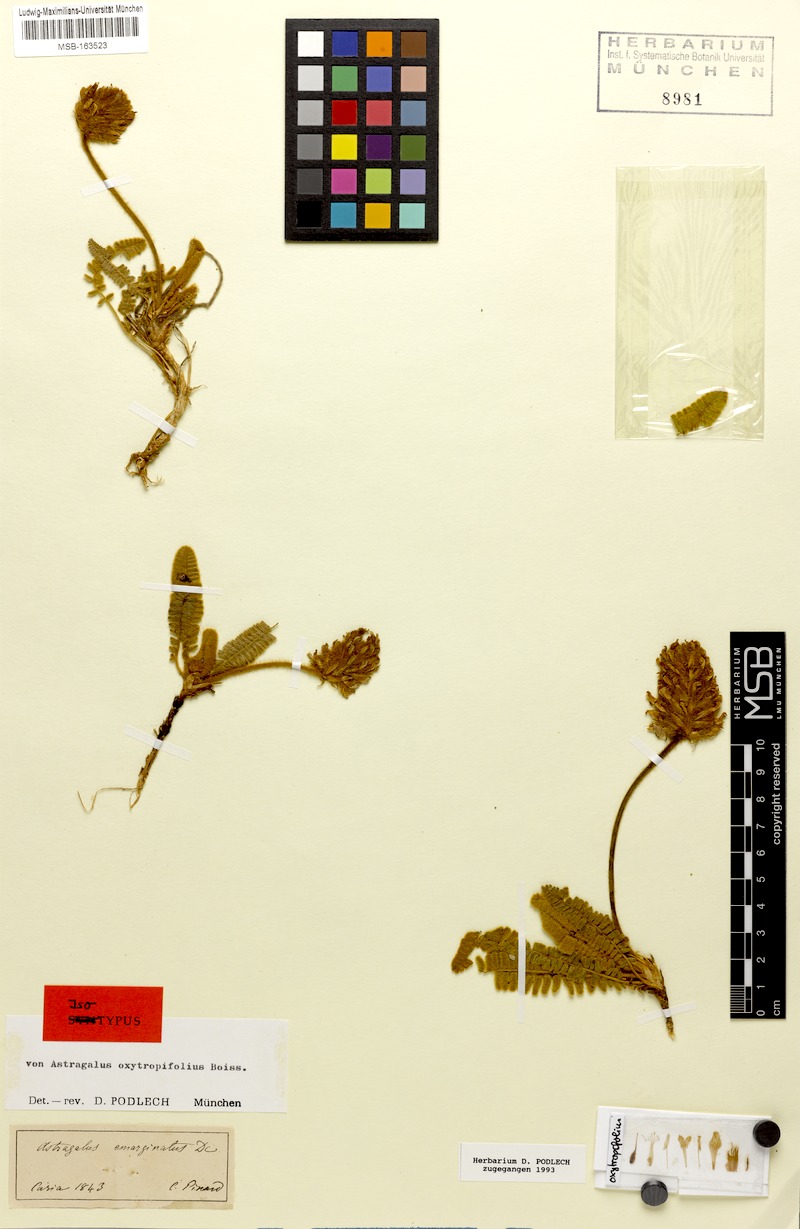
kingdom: Plantae
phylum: Tracheophyta
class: Magnoliopsida
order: Fabales
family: Fabaceae
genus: Astragalus
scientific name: Astragalus oxytropifolius
